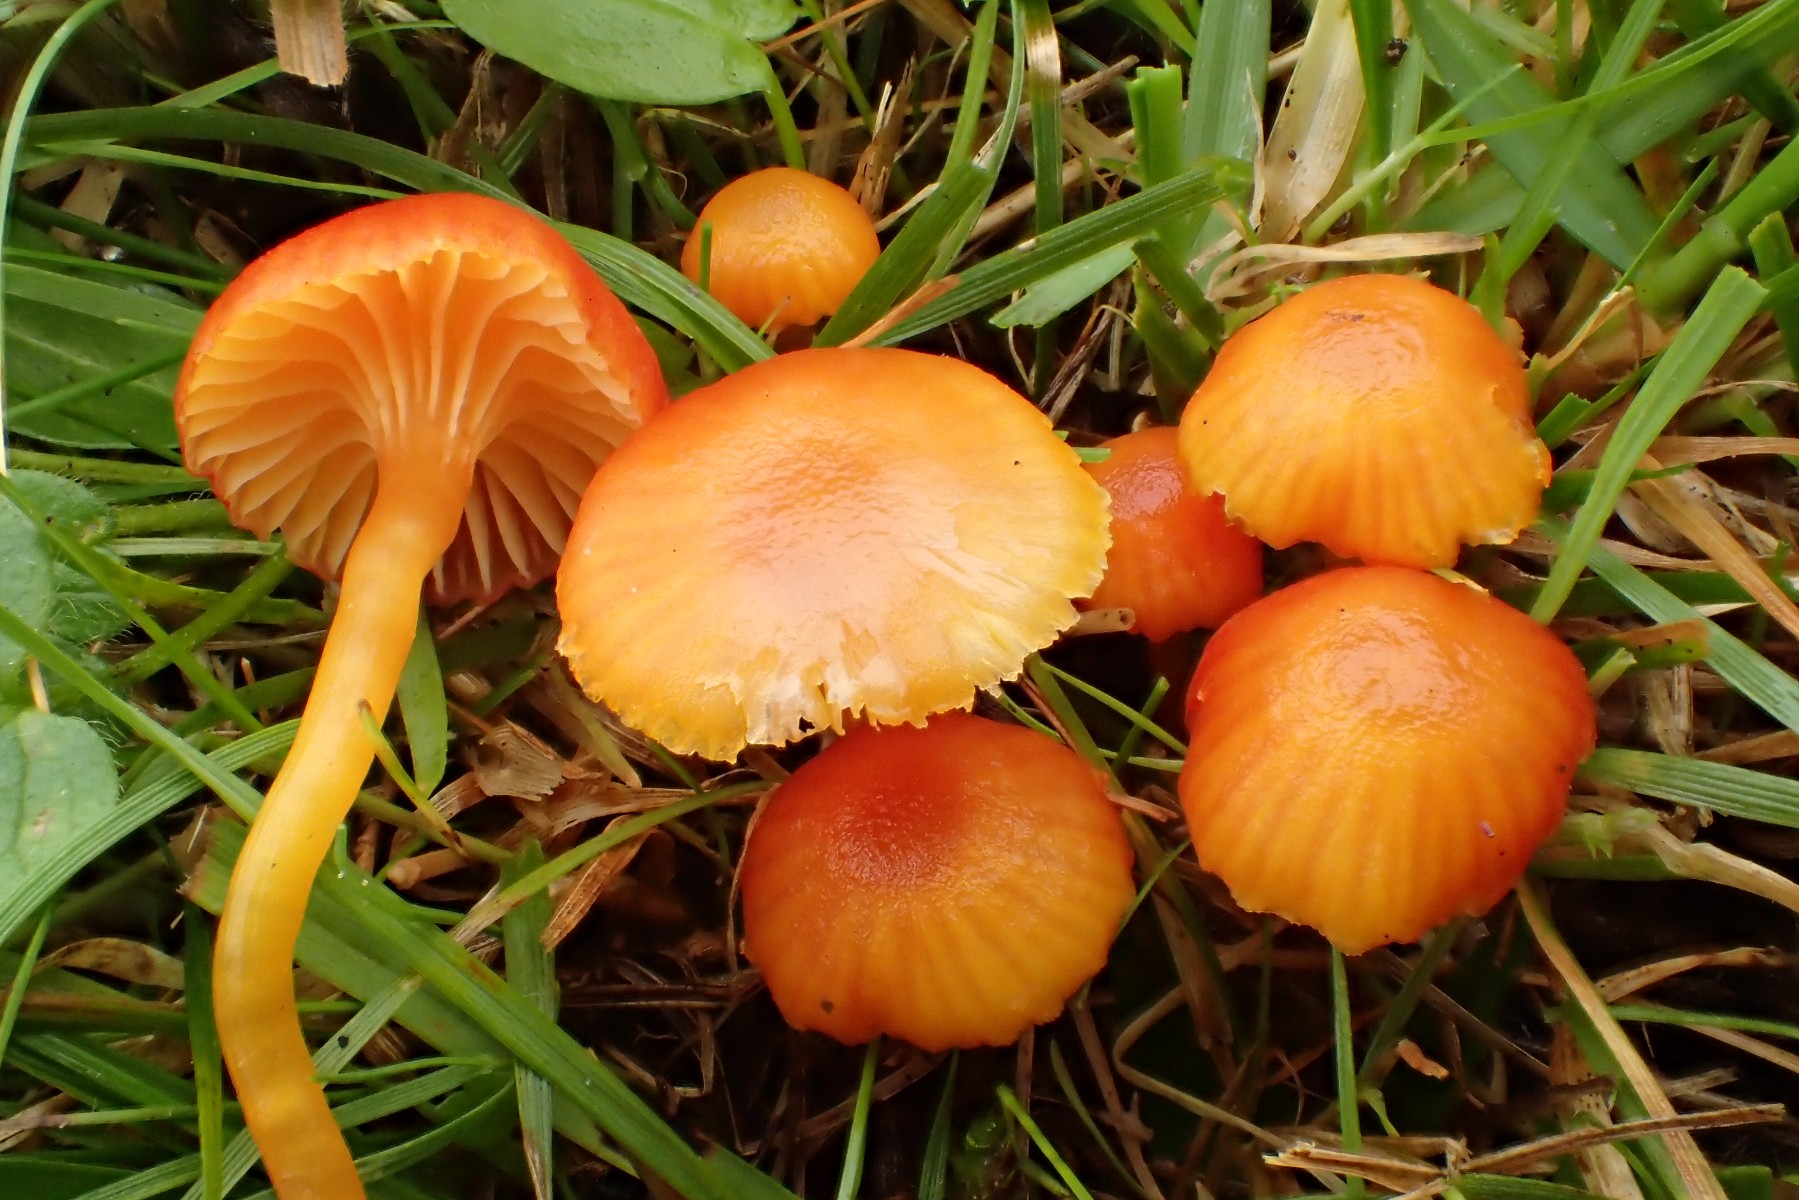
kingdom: Fungi
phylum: Basidiomycota
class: Agaricomycetes
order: Agaricales
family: Hygrophoraceae
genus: Hygrocybe
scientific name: Hygrocybe insipida
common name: liden vokshat
